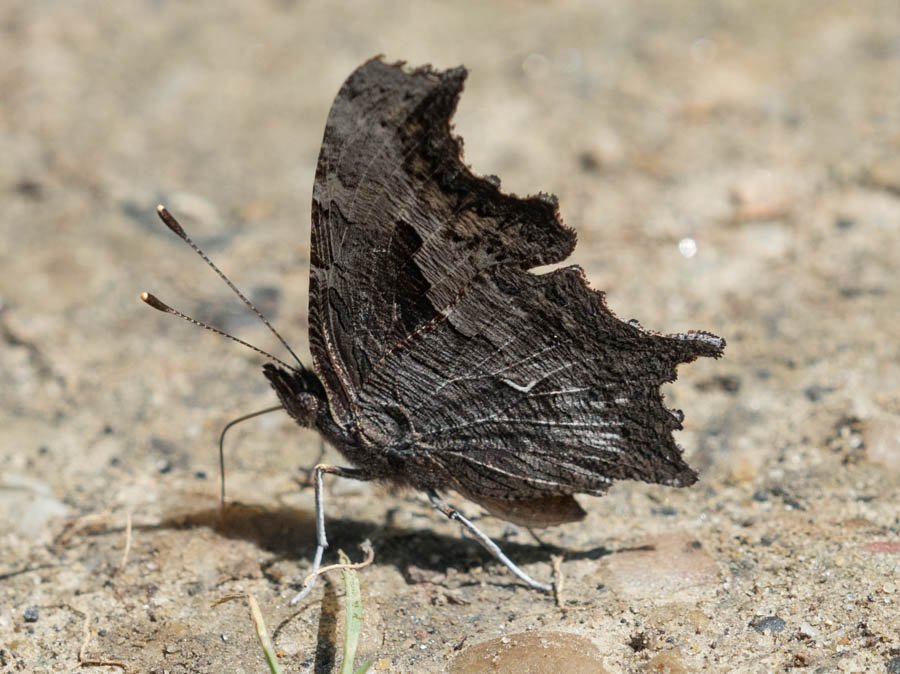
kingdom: Animalia
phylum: Arthropoda
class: Insecta
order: Lepidoptera
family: Nymphalidae
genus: Polygonia
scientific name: Polygonia progne
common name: Gray Comma
